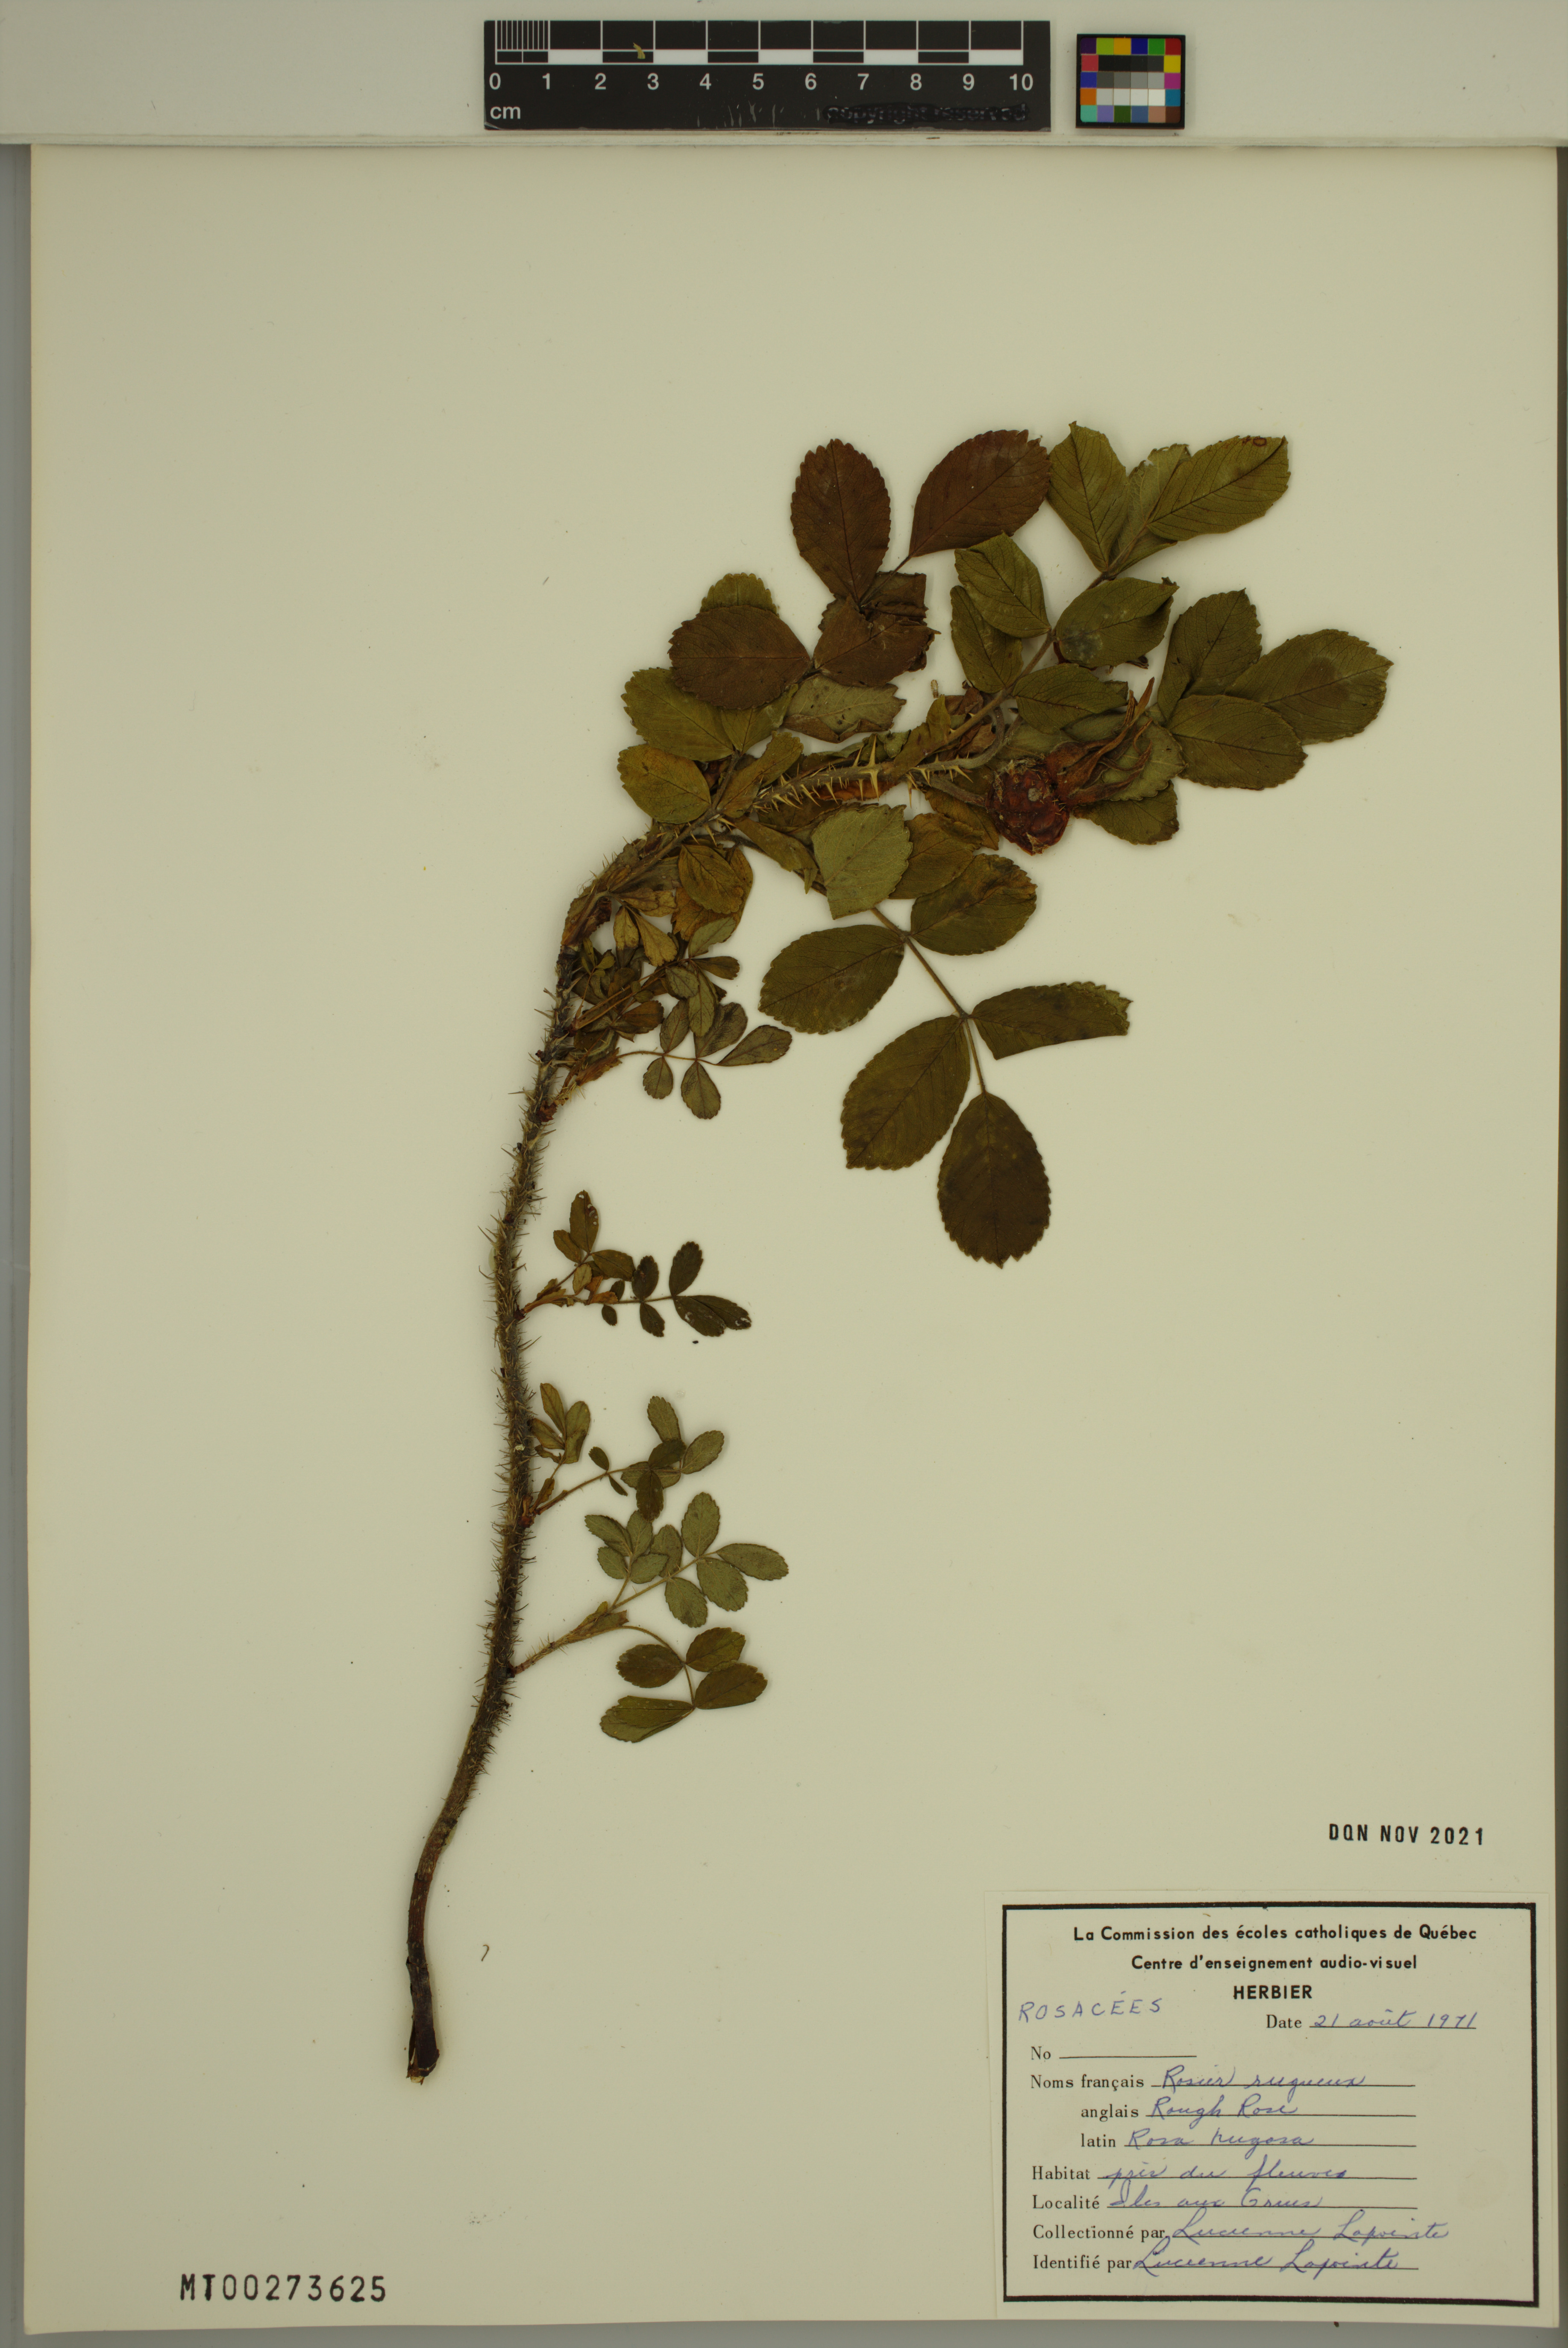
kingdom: Plantae
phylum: Tracheophyta
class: Magnoliopsida
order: Rosales
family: Rosaceae
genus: Rosa
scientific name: Rosa rugosa
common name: Japanese rose
